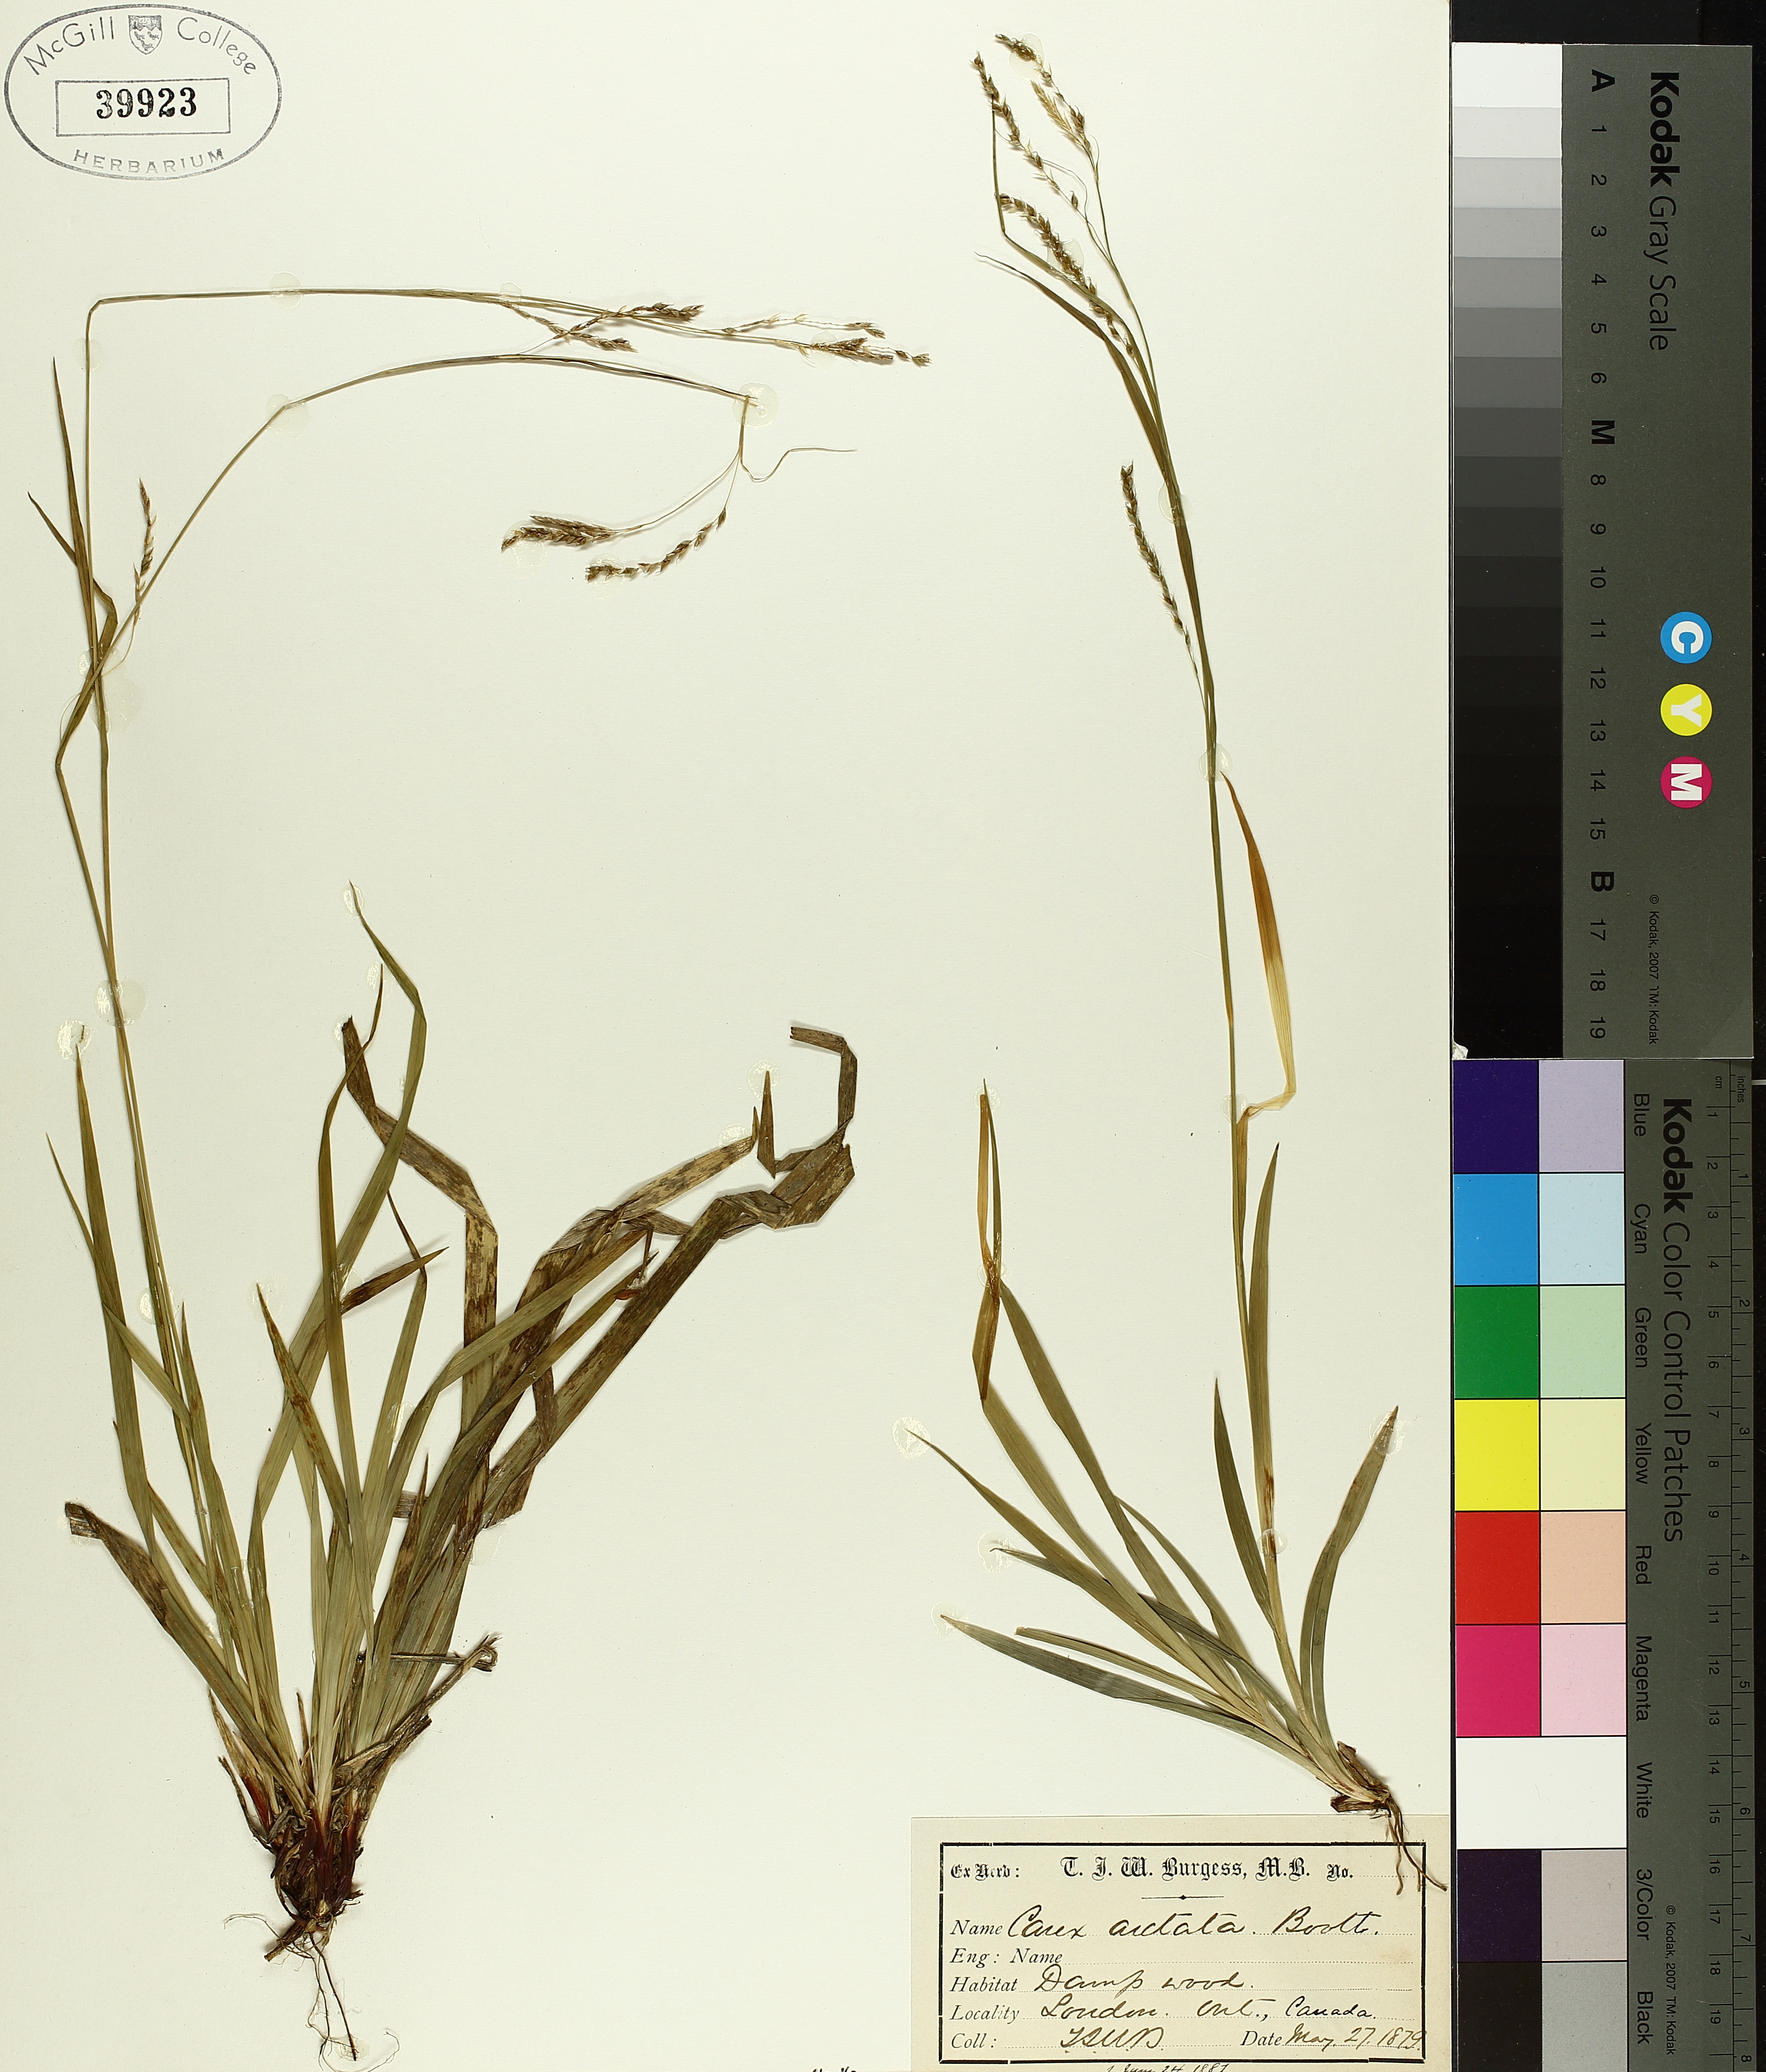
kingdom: Plantae
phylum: Tracheophyta
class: Liliopsida
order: Poales
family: Cyperaceae
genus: Carex
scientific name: Carex arctata
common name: Black sedge
